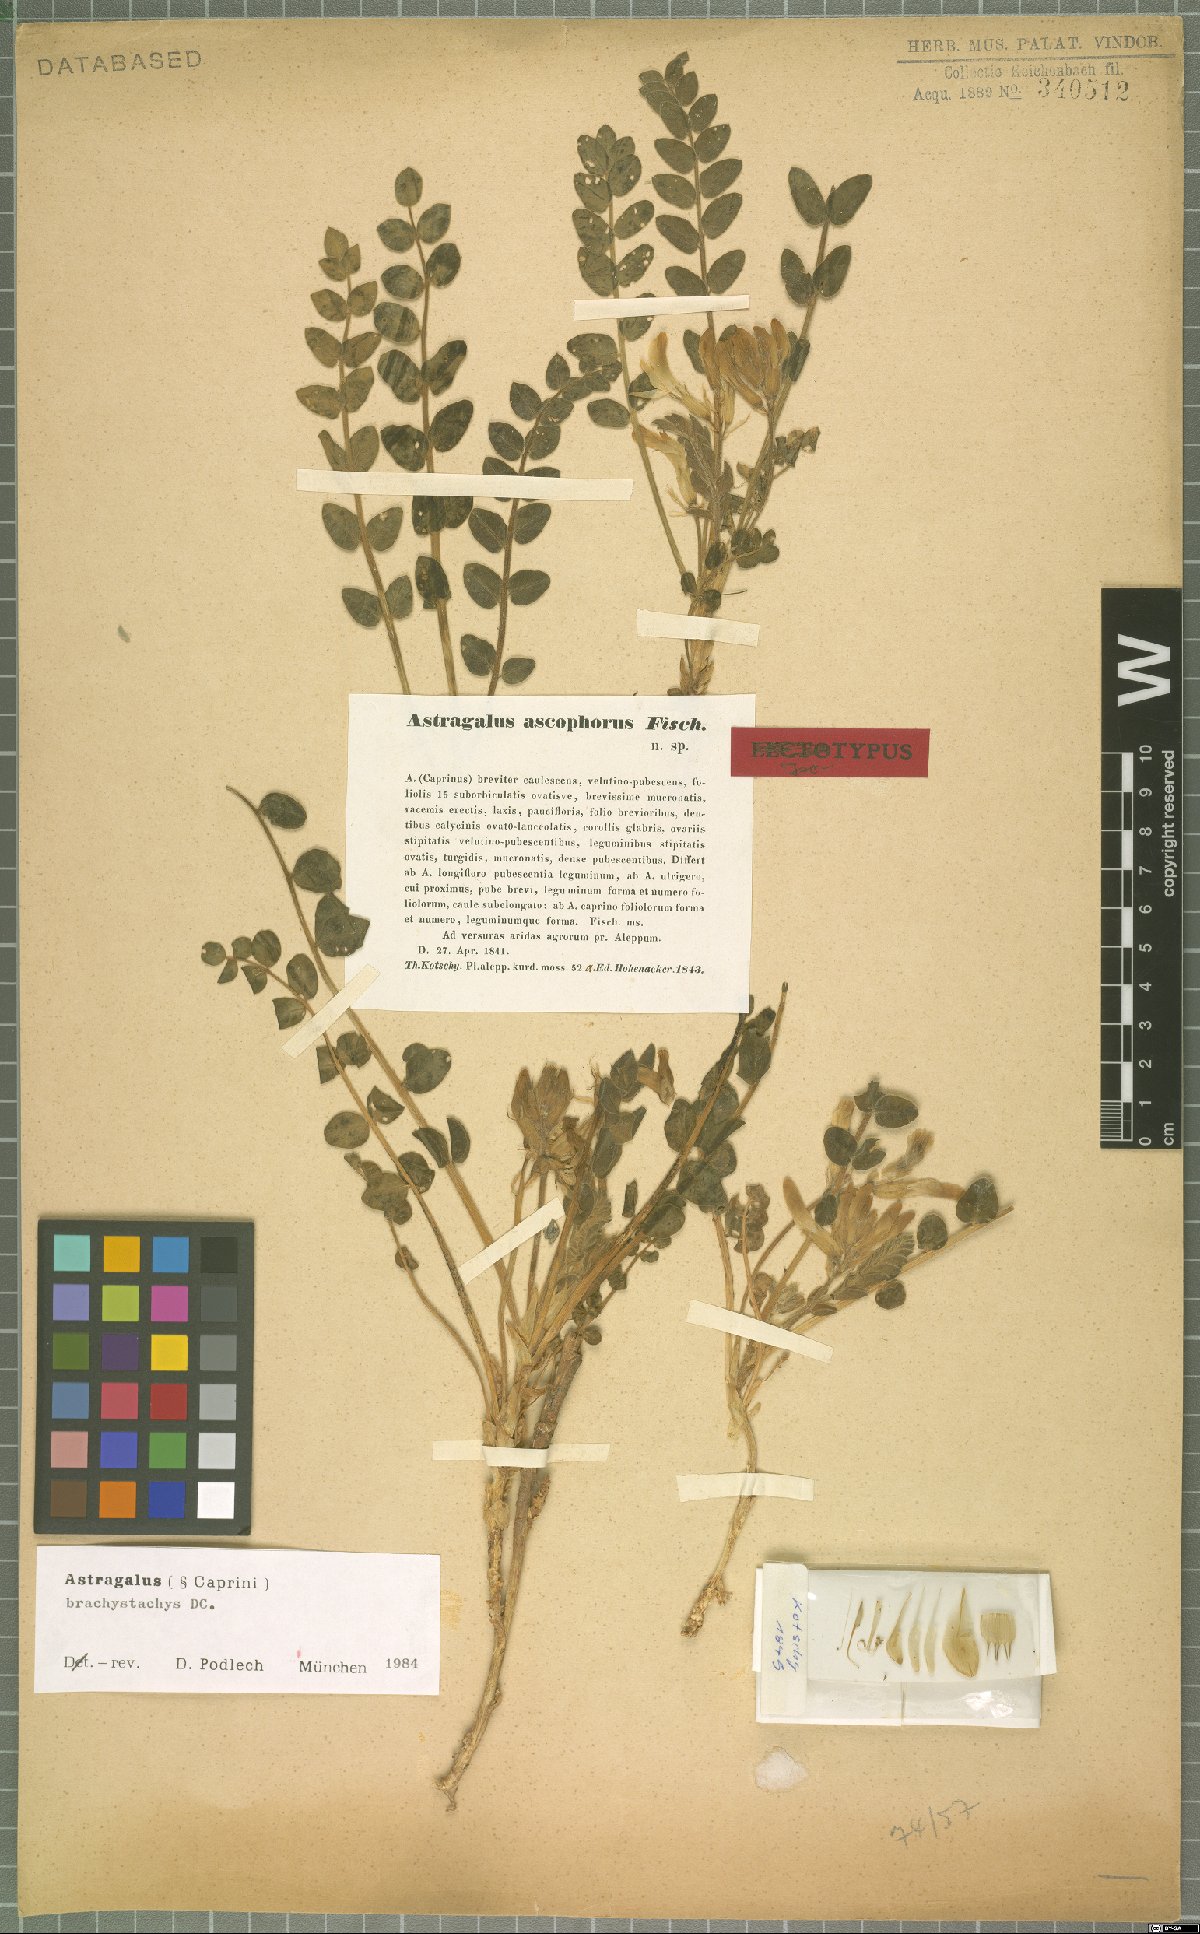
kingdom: Plantae
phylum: Tracheophyta
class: Magnoliopsida
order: Fabales
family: Fabaceae
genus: Astragalus
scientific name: Astragalus brachystachys
